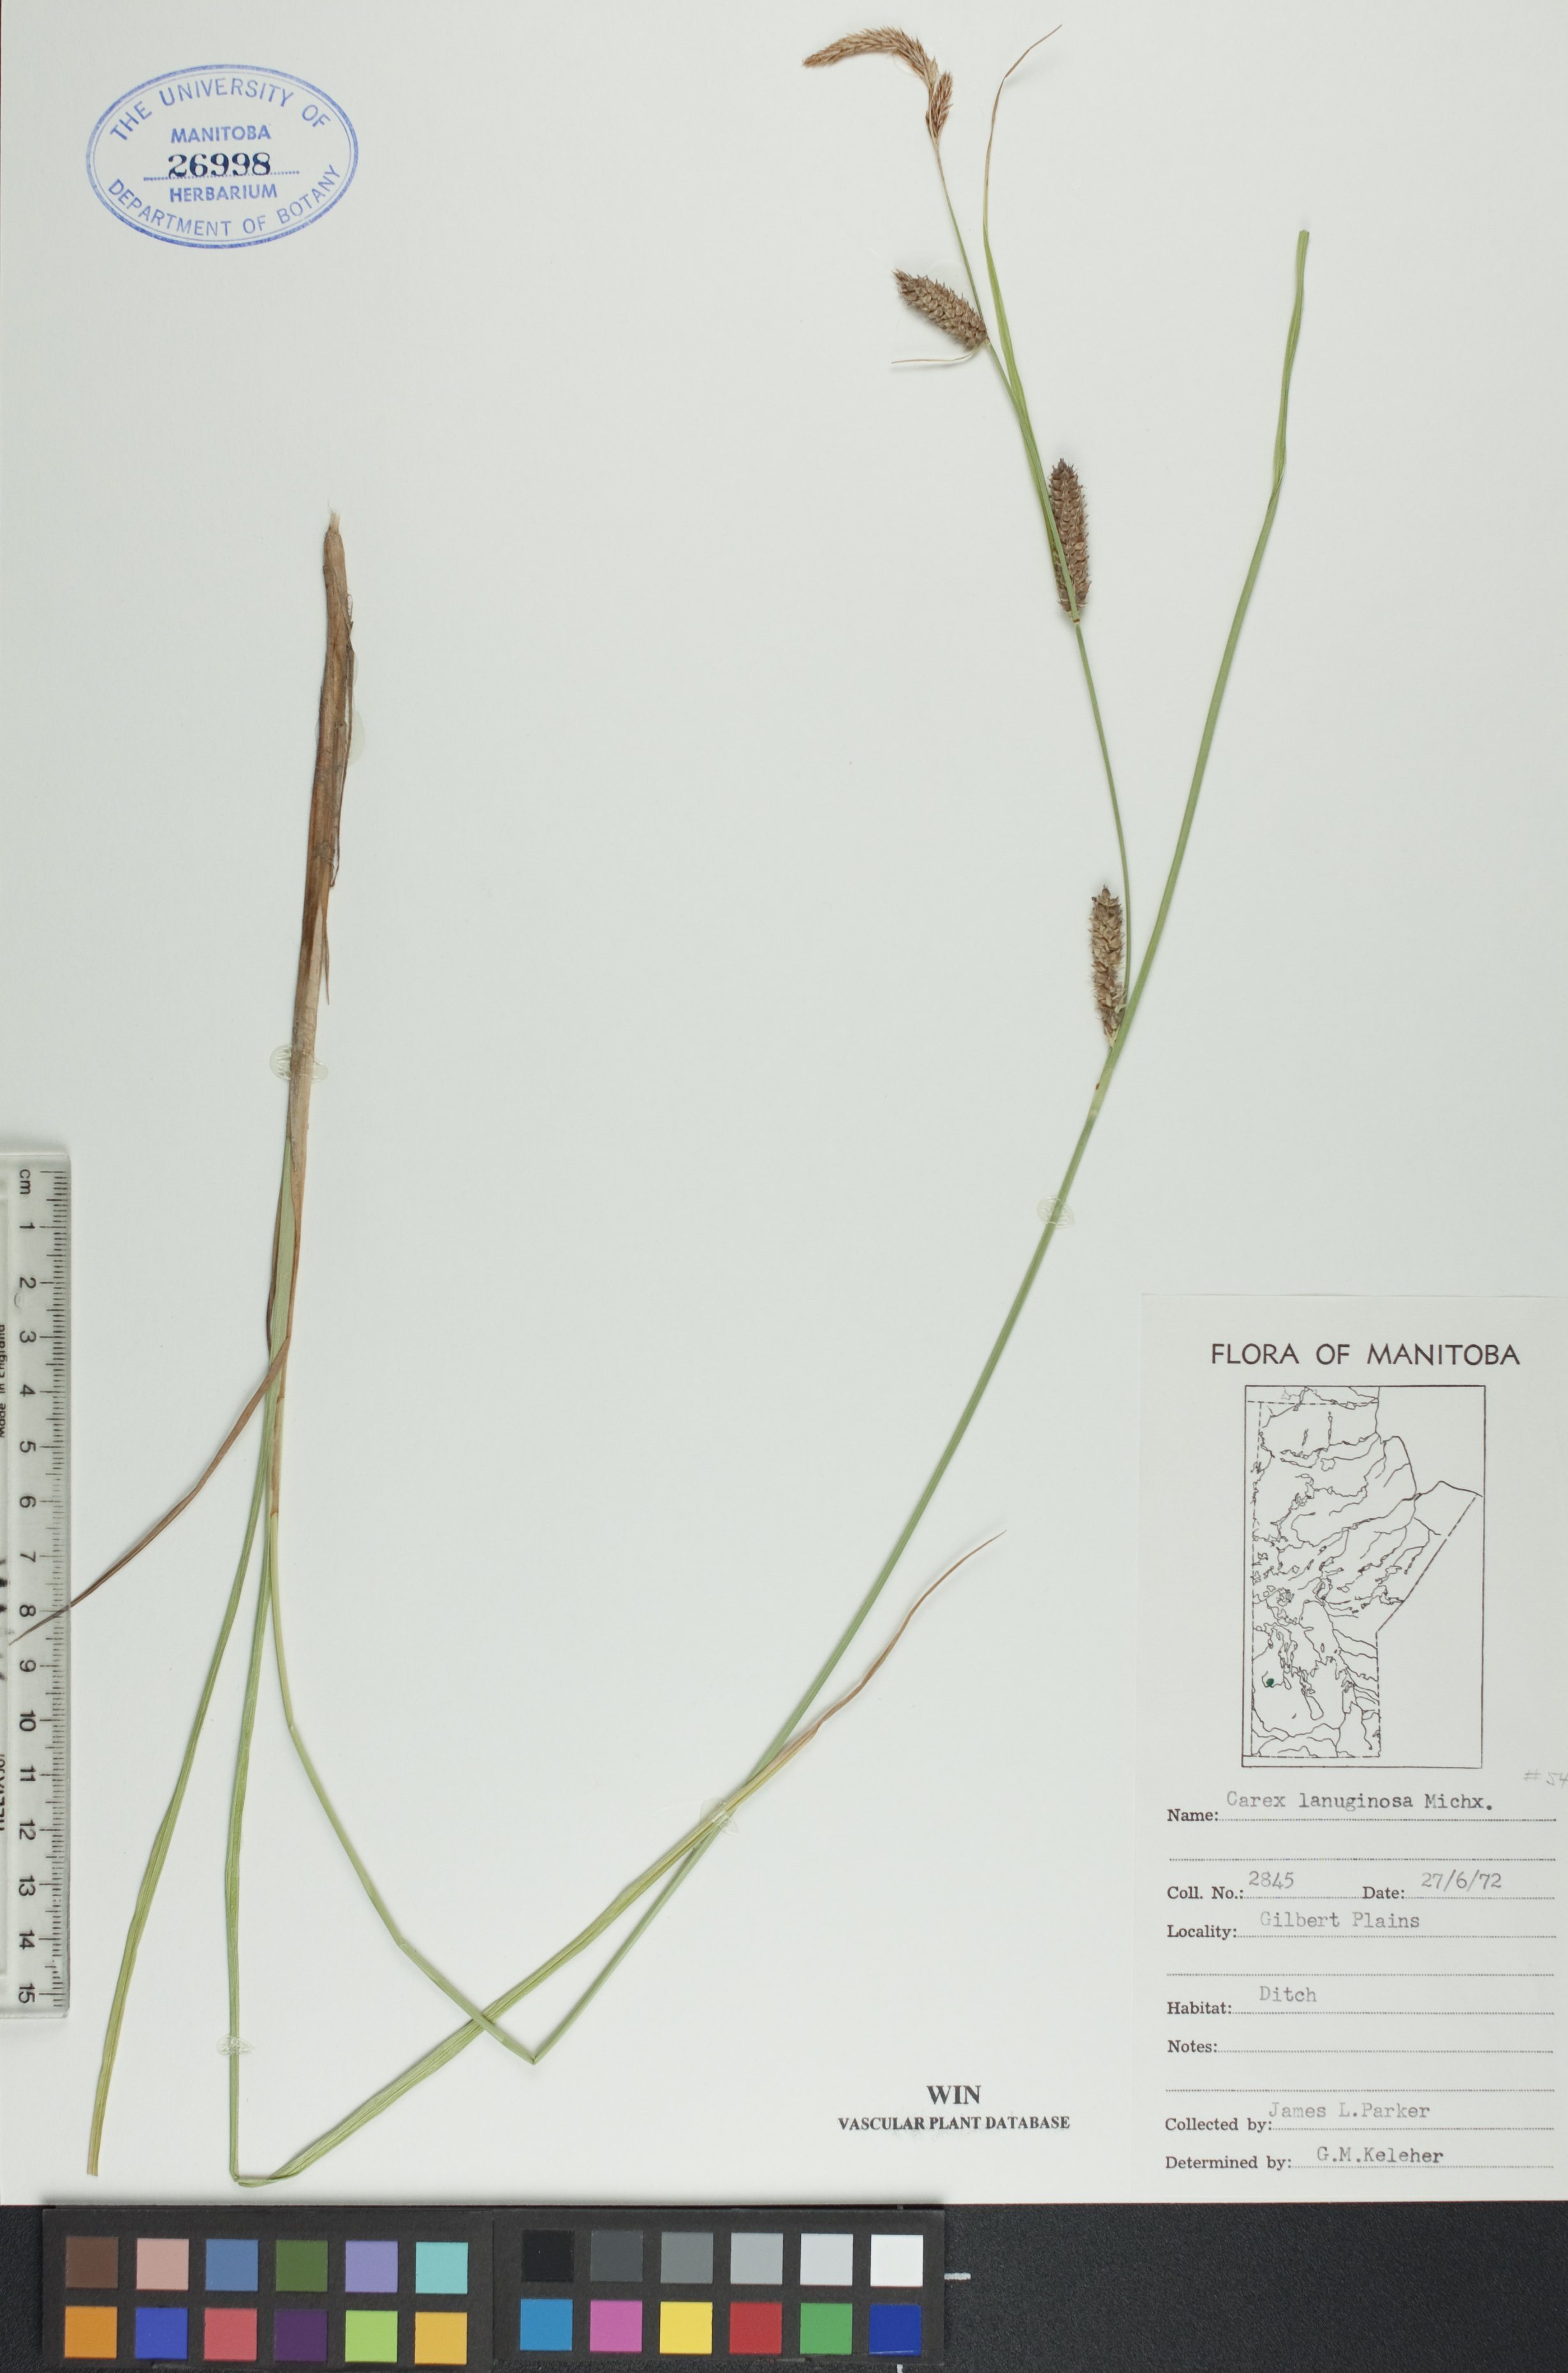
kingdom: Plantae
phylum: Tracheophyta
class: Liliopsida
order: Poales
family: Cyperaceae
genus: Carex
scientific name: Carex lasiocarpa
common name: Slender sedge
